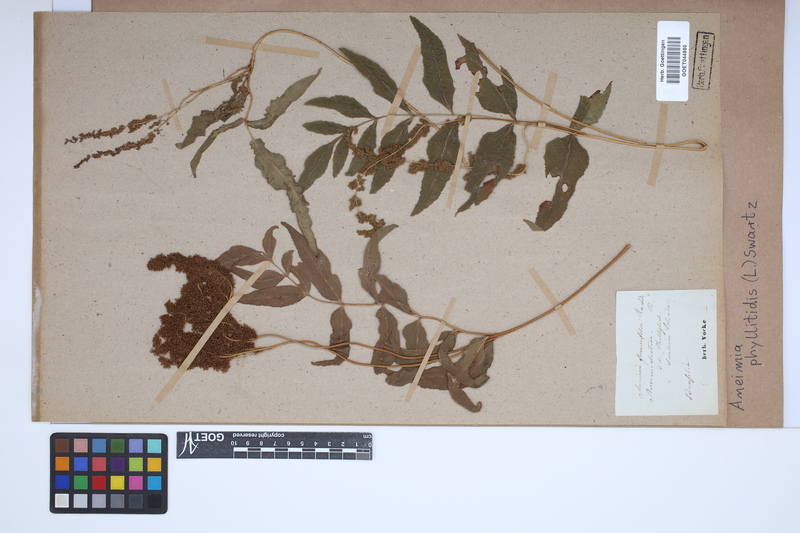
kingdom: Plantae
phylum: Tracheophyta
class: Polypodiopsida
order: Schizaeales
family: Anemiaceae
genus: Anemia
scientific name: Anemia phyllitidis
